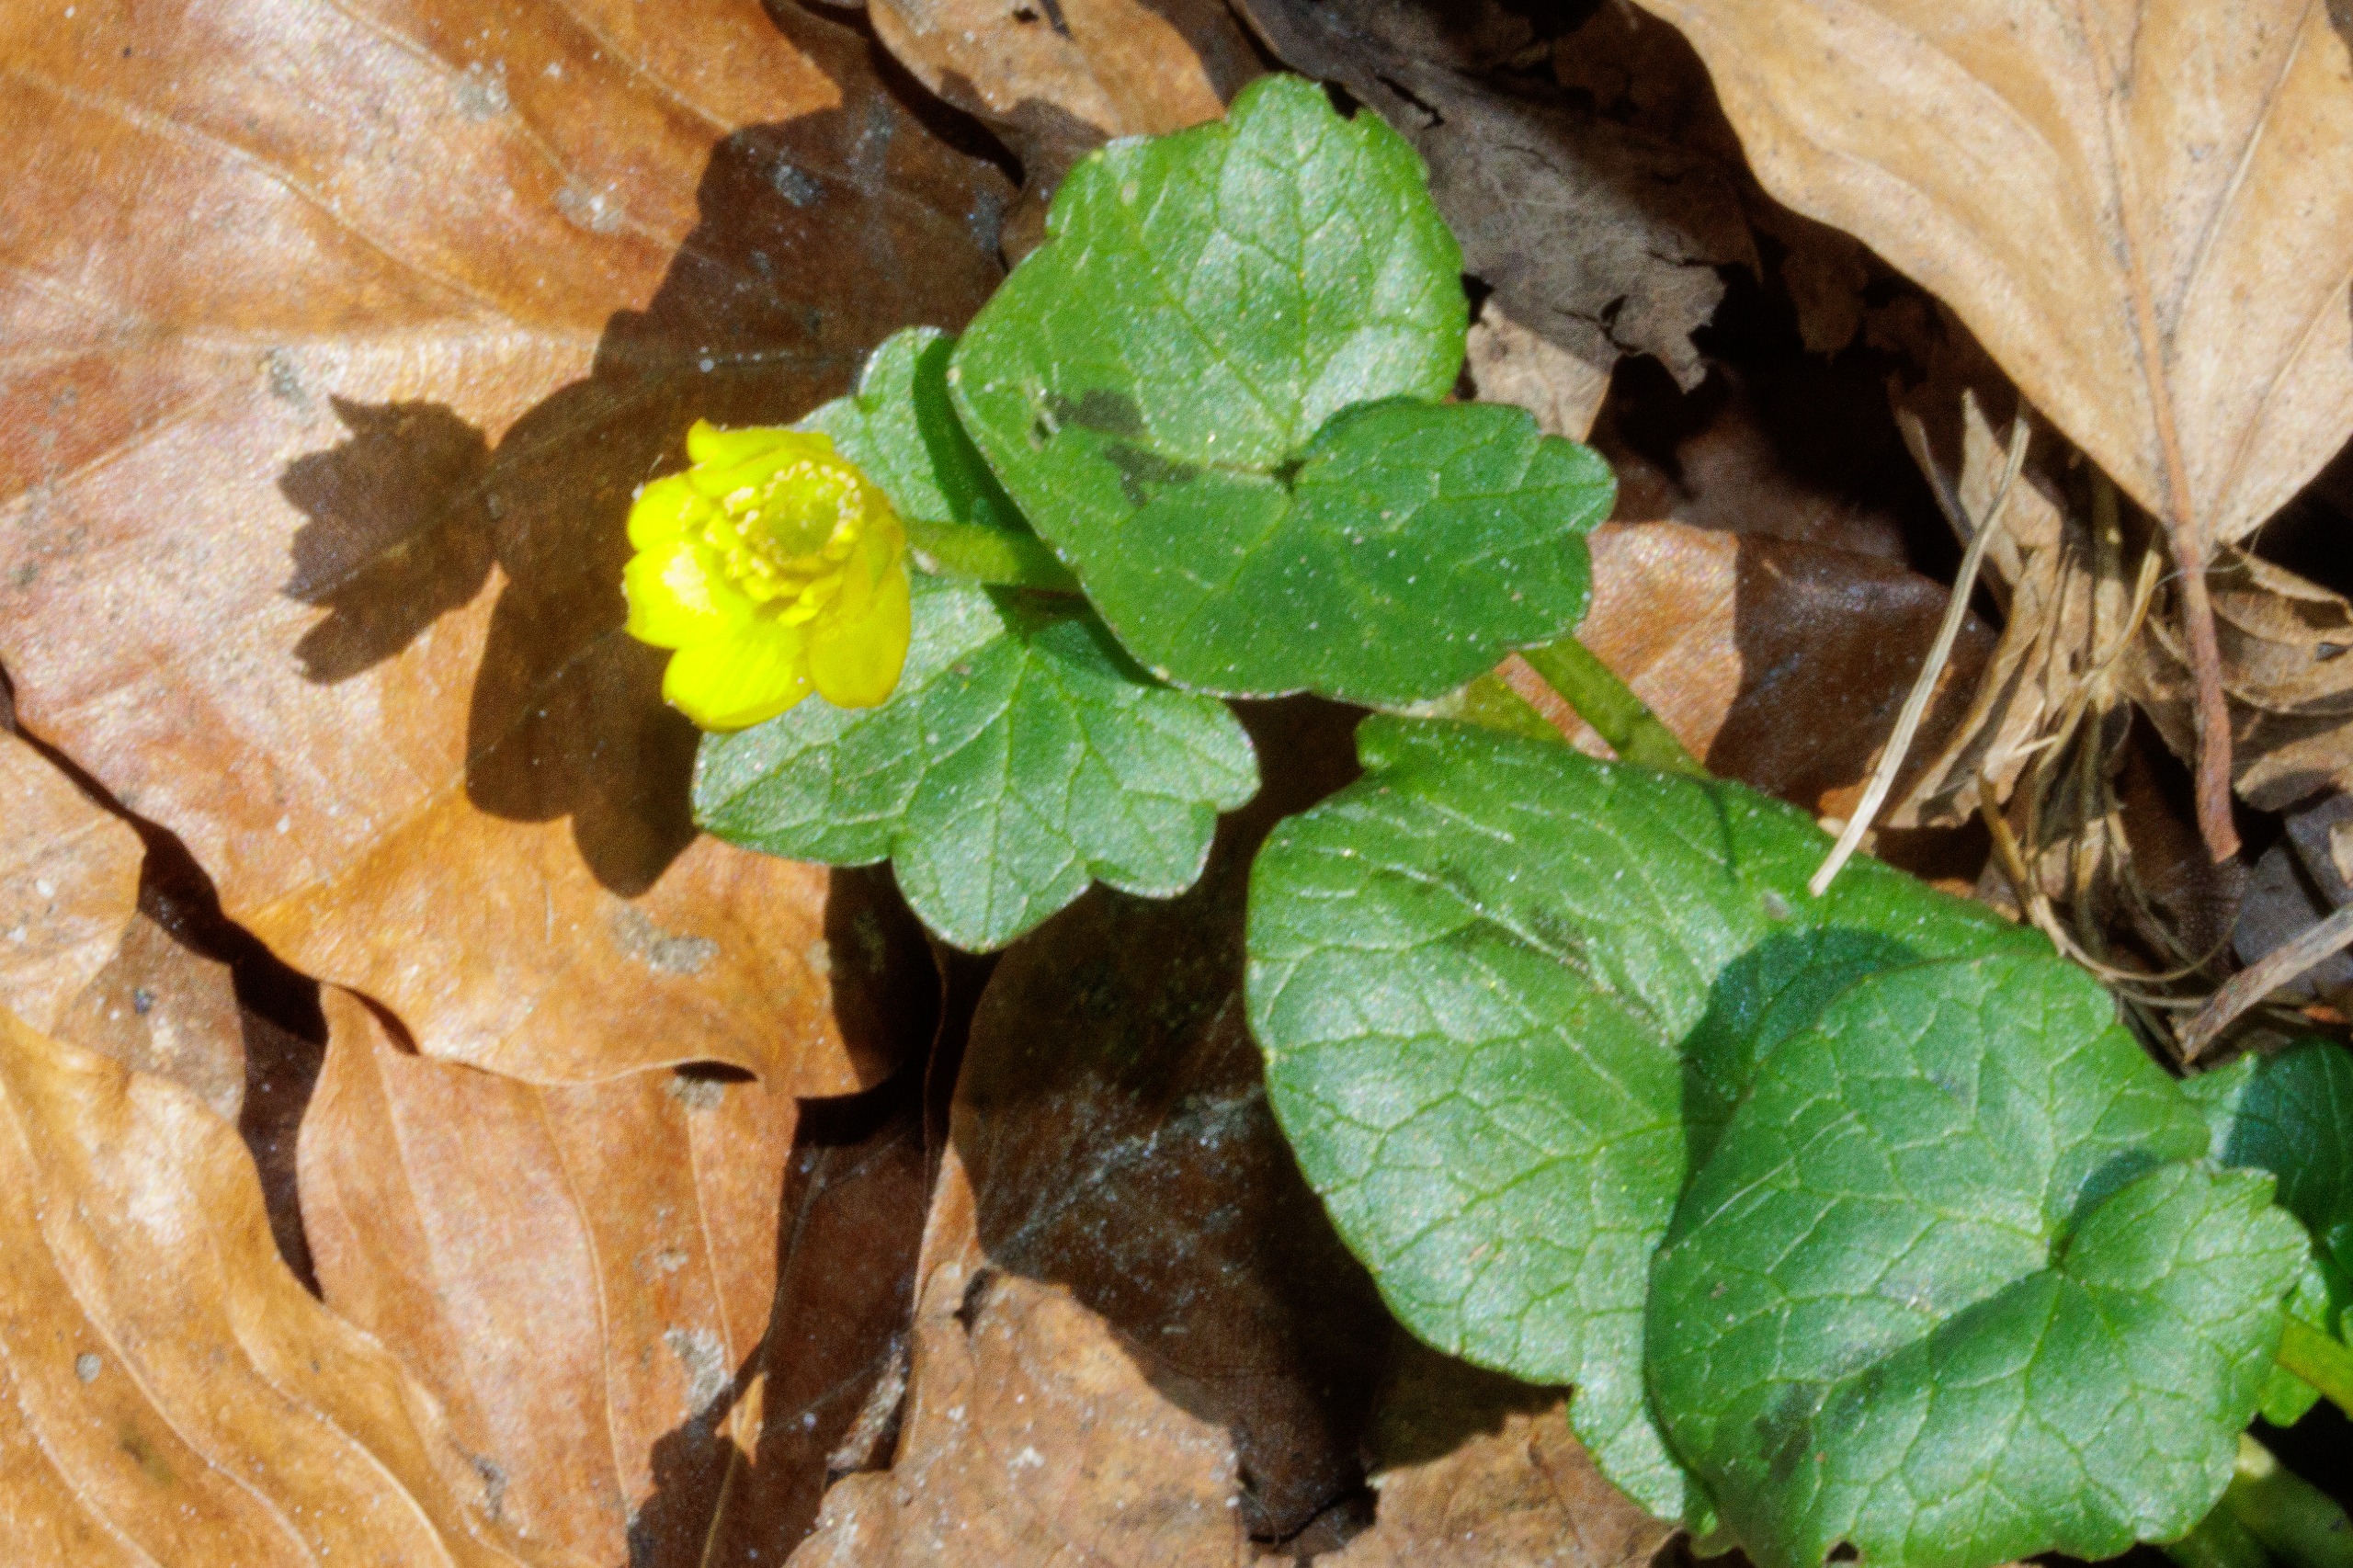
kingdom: Plantae
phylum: Tracheophyta
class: Magnoliopsida
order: Ranunculales
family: Ranunculaceae
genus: Ficaria
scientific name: Ficaria verna
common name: Vorterod
